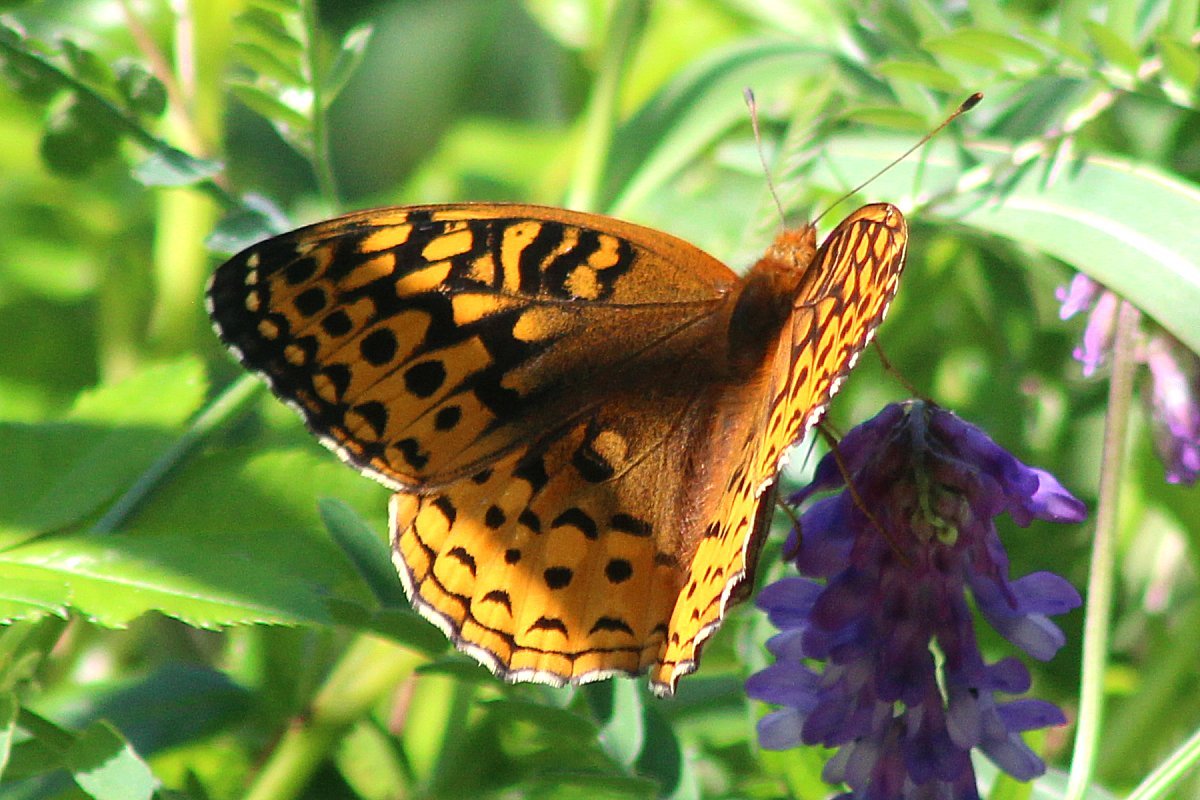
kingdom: Animalia
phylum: Arthropoda
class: Insecta
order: Lepidoptera
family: Nymphalidae
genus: Speyeria
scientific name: Speyeria cybele
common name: Great Spangled Fritillary
